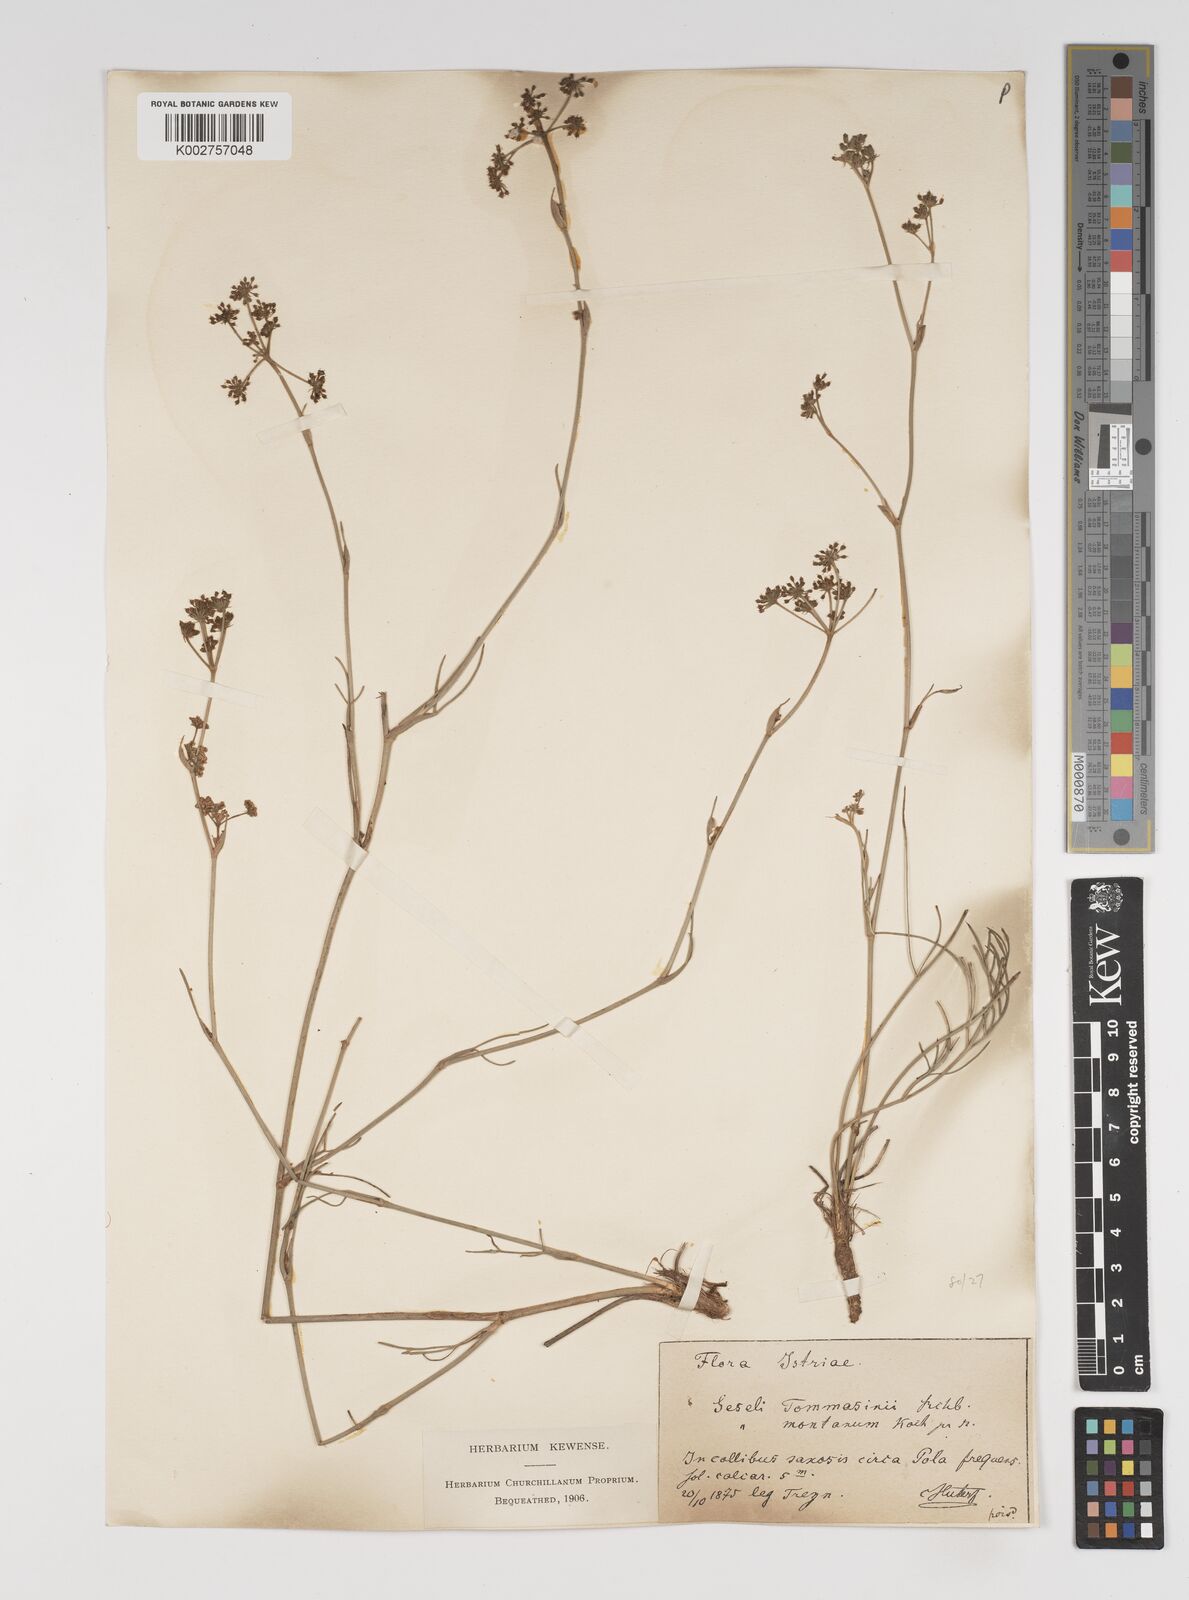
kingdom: Plantae
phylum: Tracheophyta
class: Magnoliopsida
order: Apiales
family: Apiaceae
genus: Seseli
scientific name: Seseli montanum
